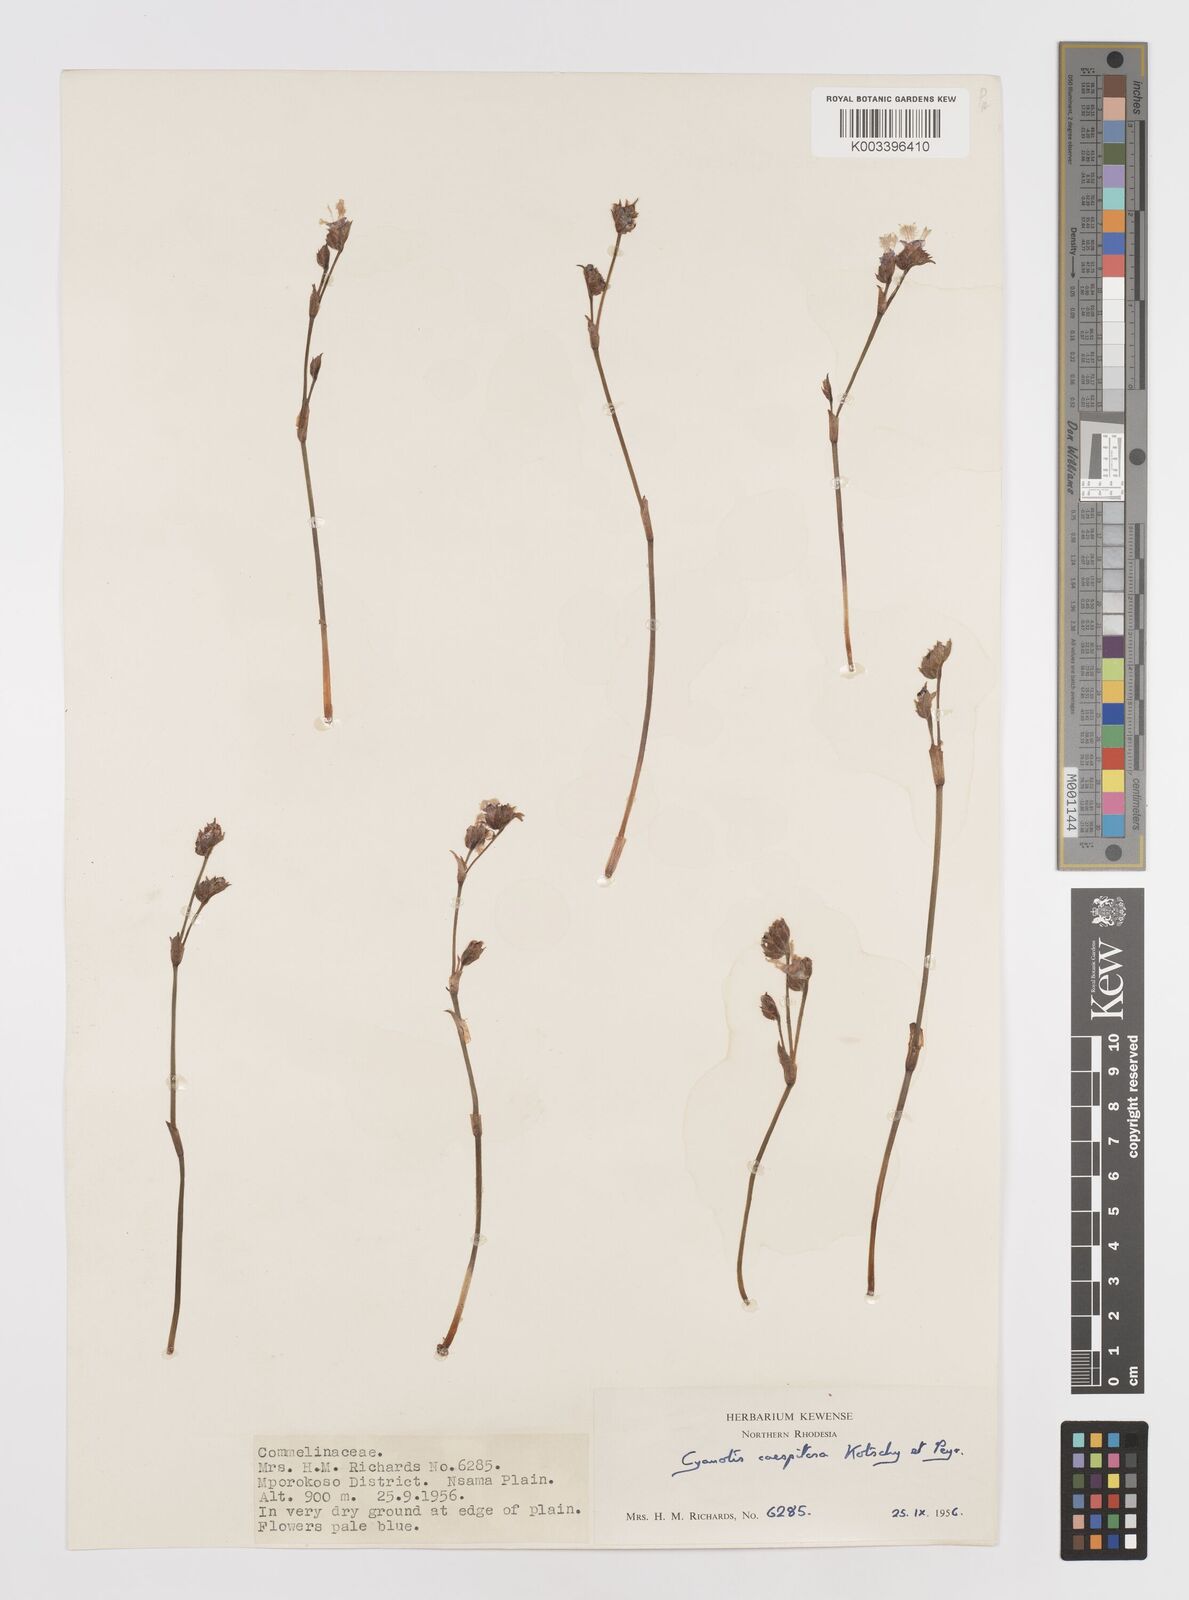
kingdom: Plantae
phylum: Tracheophyta
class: Liliopsida
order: Commelinales
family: Commelinaceae
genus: Cyanotis
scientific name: Cyanotis caespitosa
